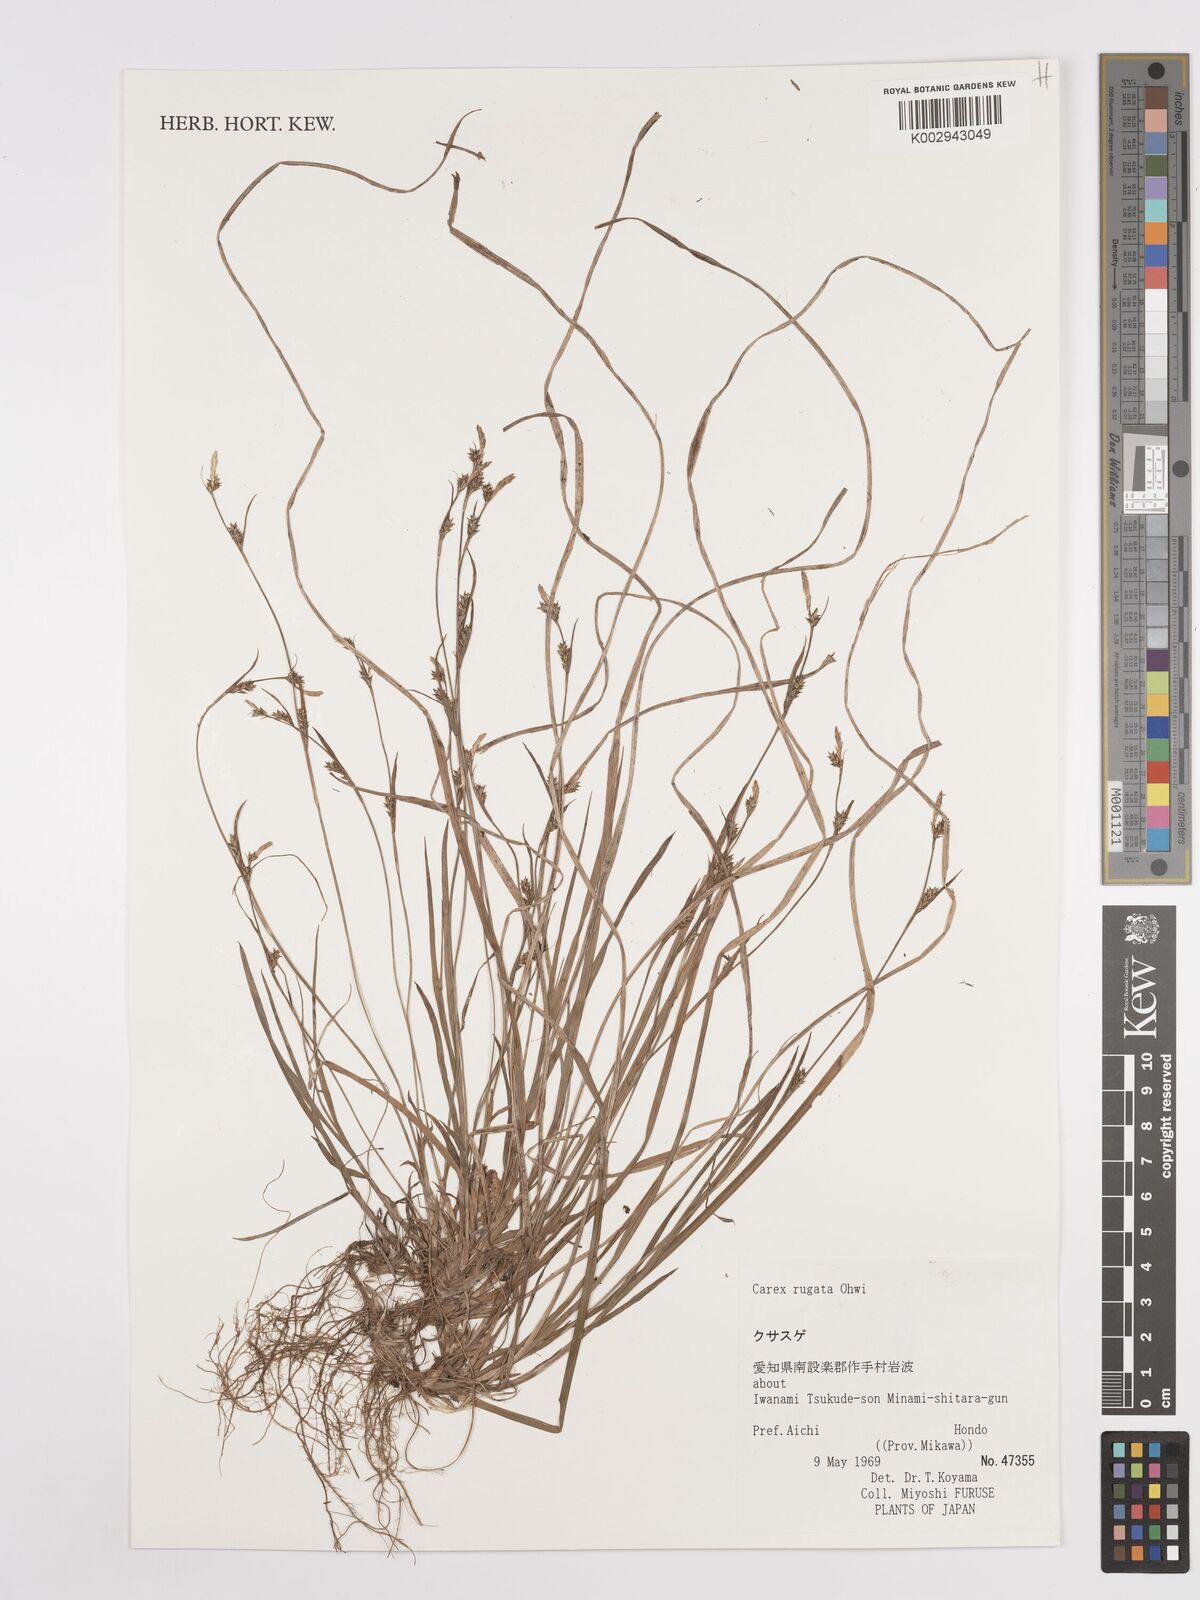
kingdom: Plantae
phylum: Tracheophyta
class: Liliopsida
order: Poales
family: Cyperaceae
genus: Carex
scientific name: Carex rugata
